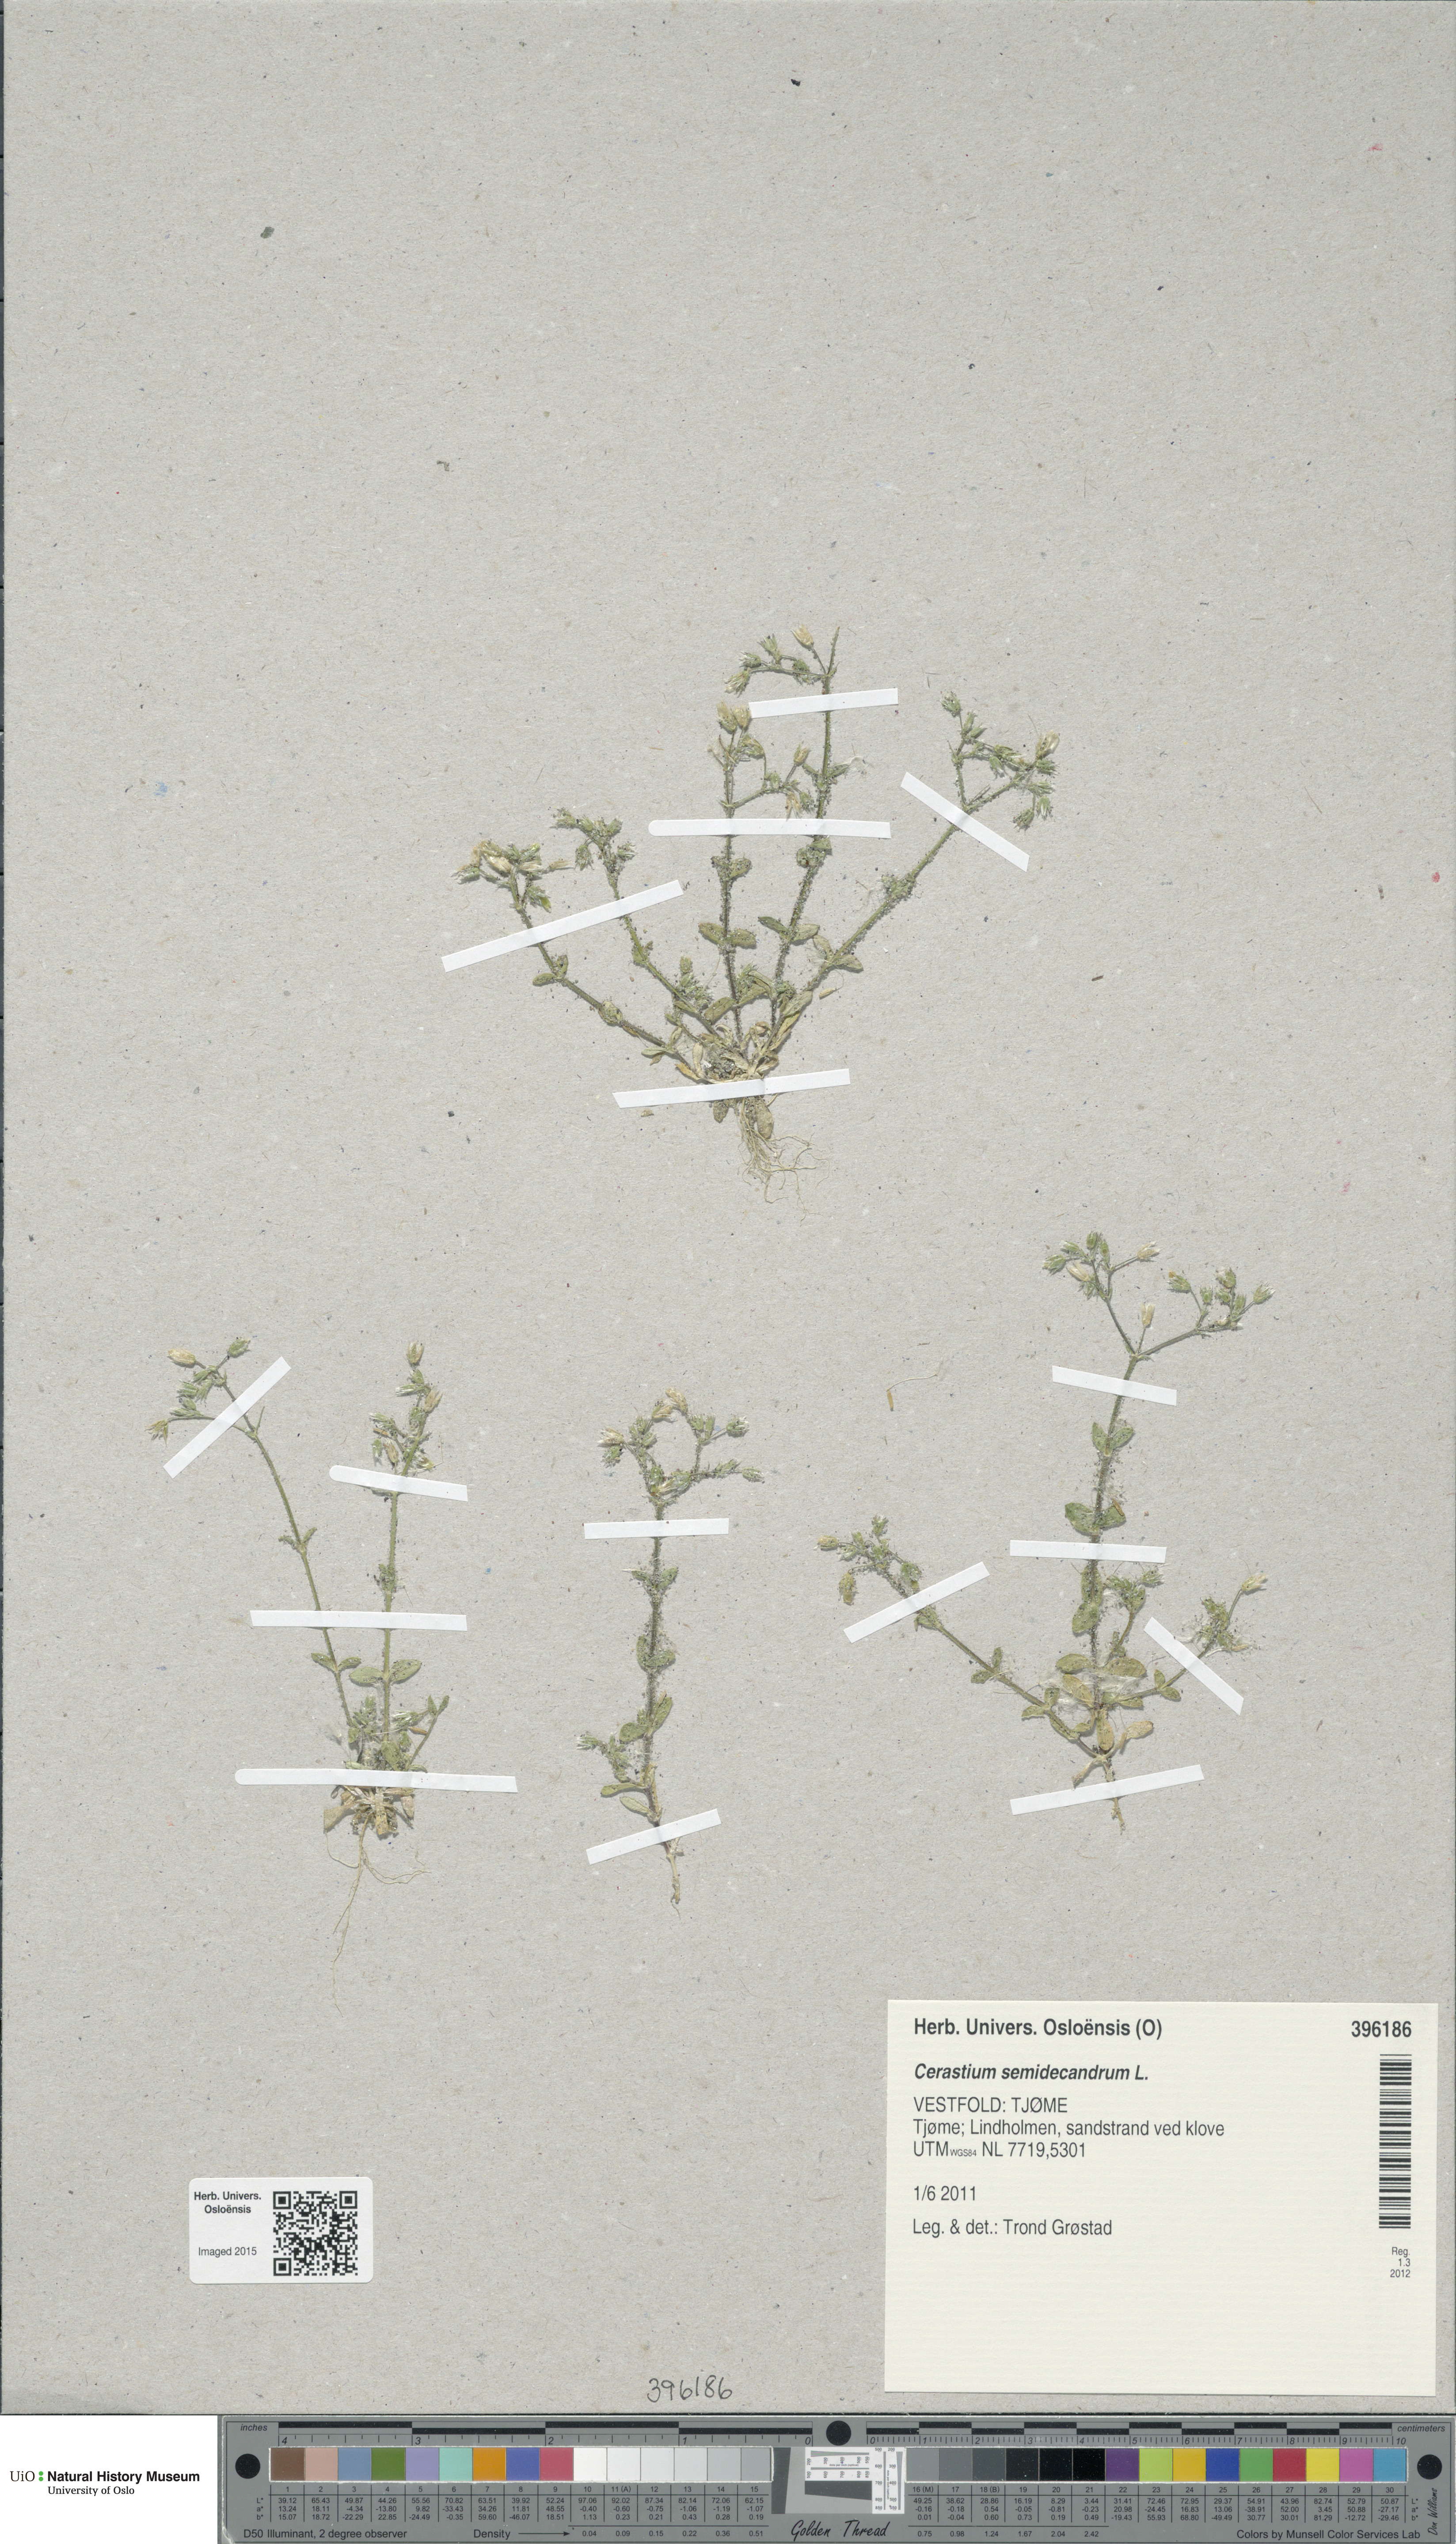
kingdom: Plantae
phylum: Tracheophyta
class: Magnoliopsida
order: Caryophyllales
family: Caryophyllaceae
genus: Cerastium
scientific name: Cerastium semidecandrum
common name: Little mouse-ear
